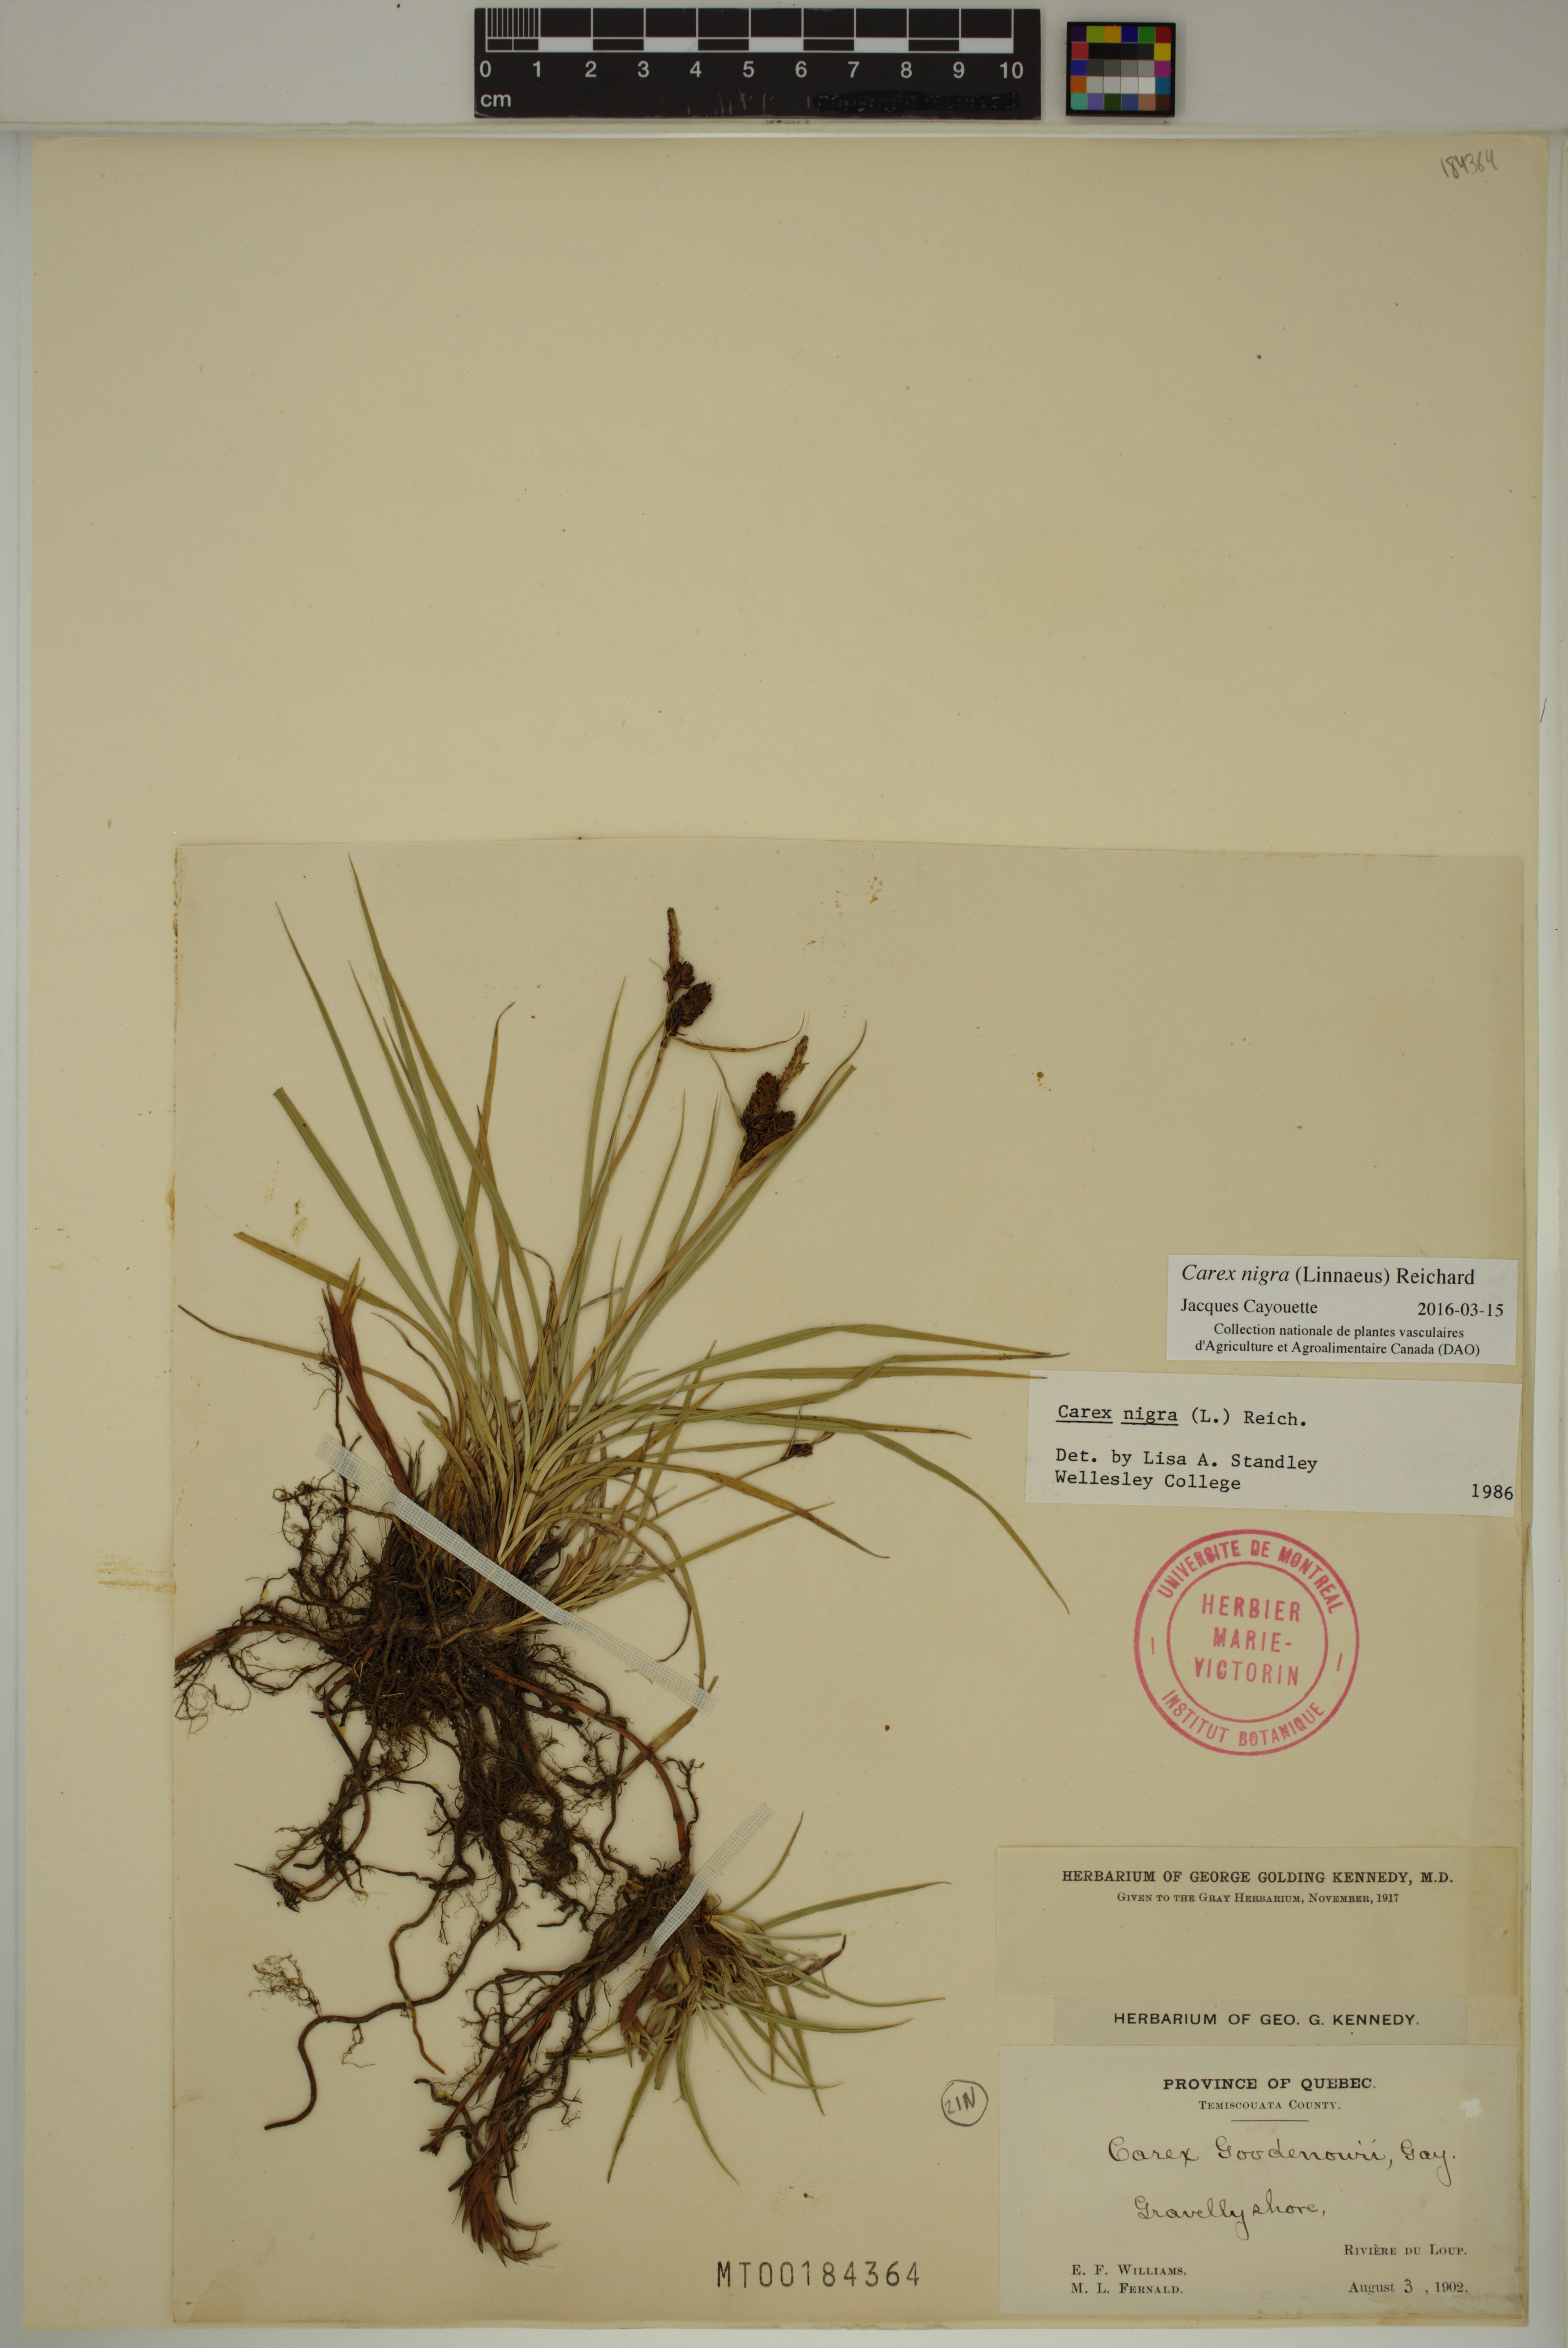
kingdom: Plantae
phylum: Tracheophyta
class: Liliopsida
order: Poales
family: Cyperaceae
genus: Carex
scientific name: Carex nigra
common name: Common sedge
